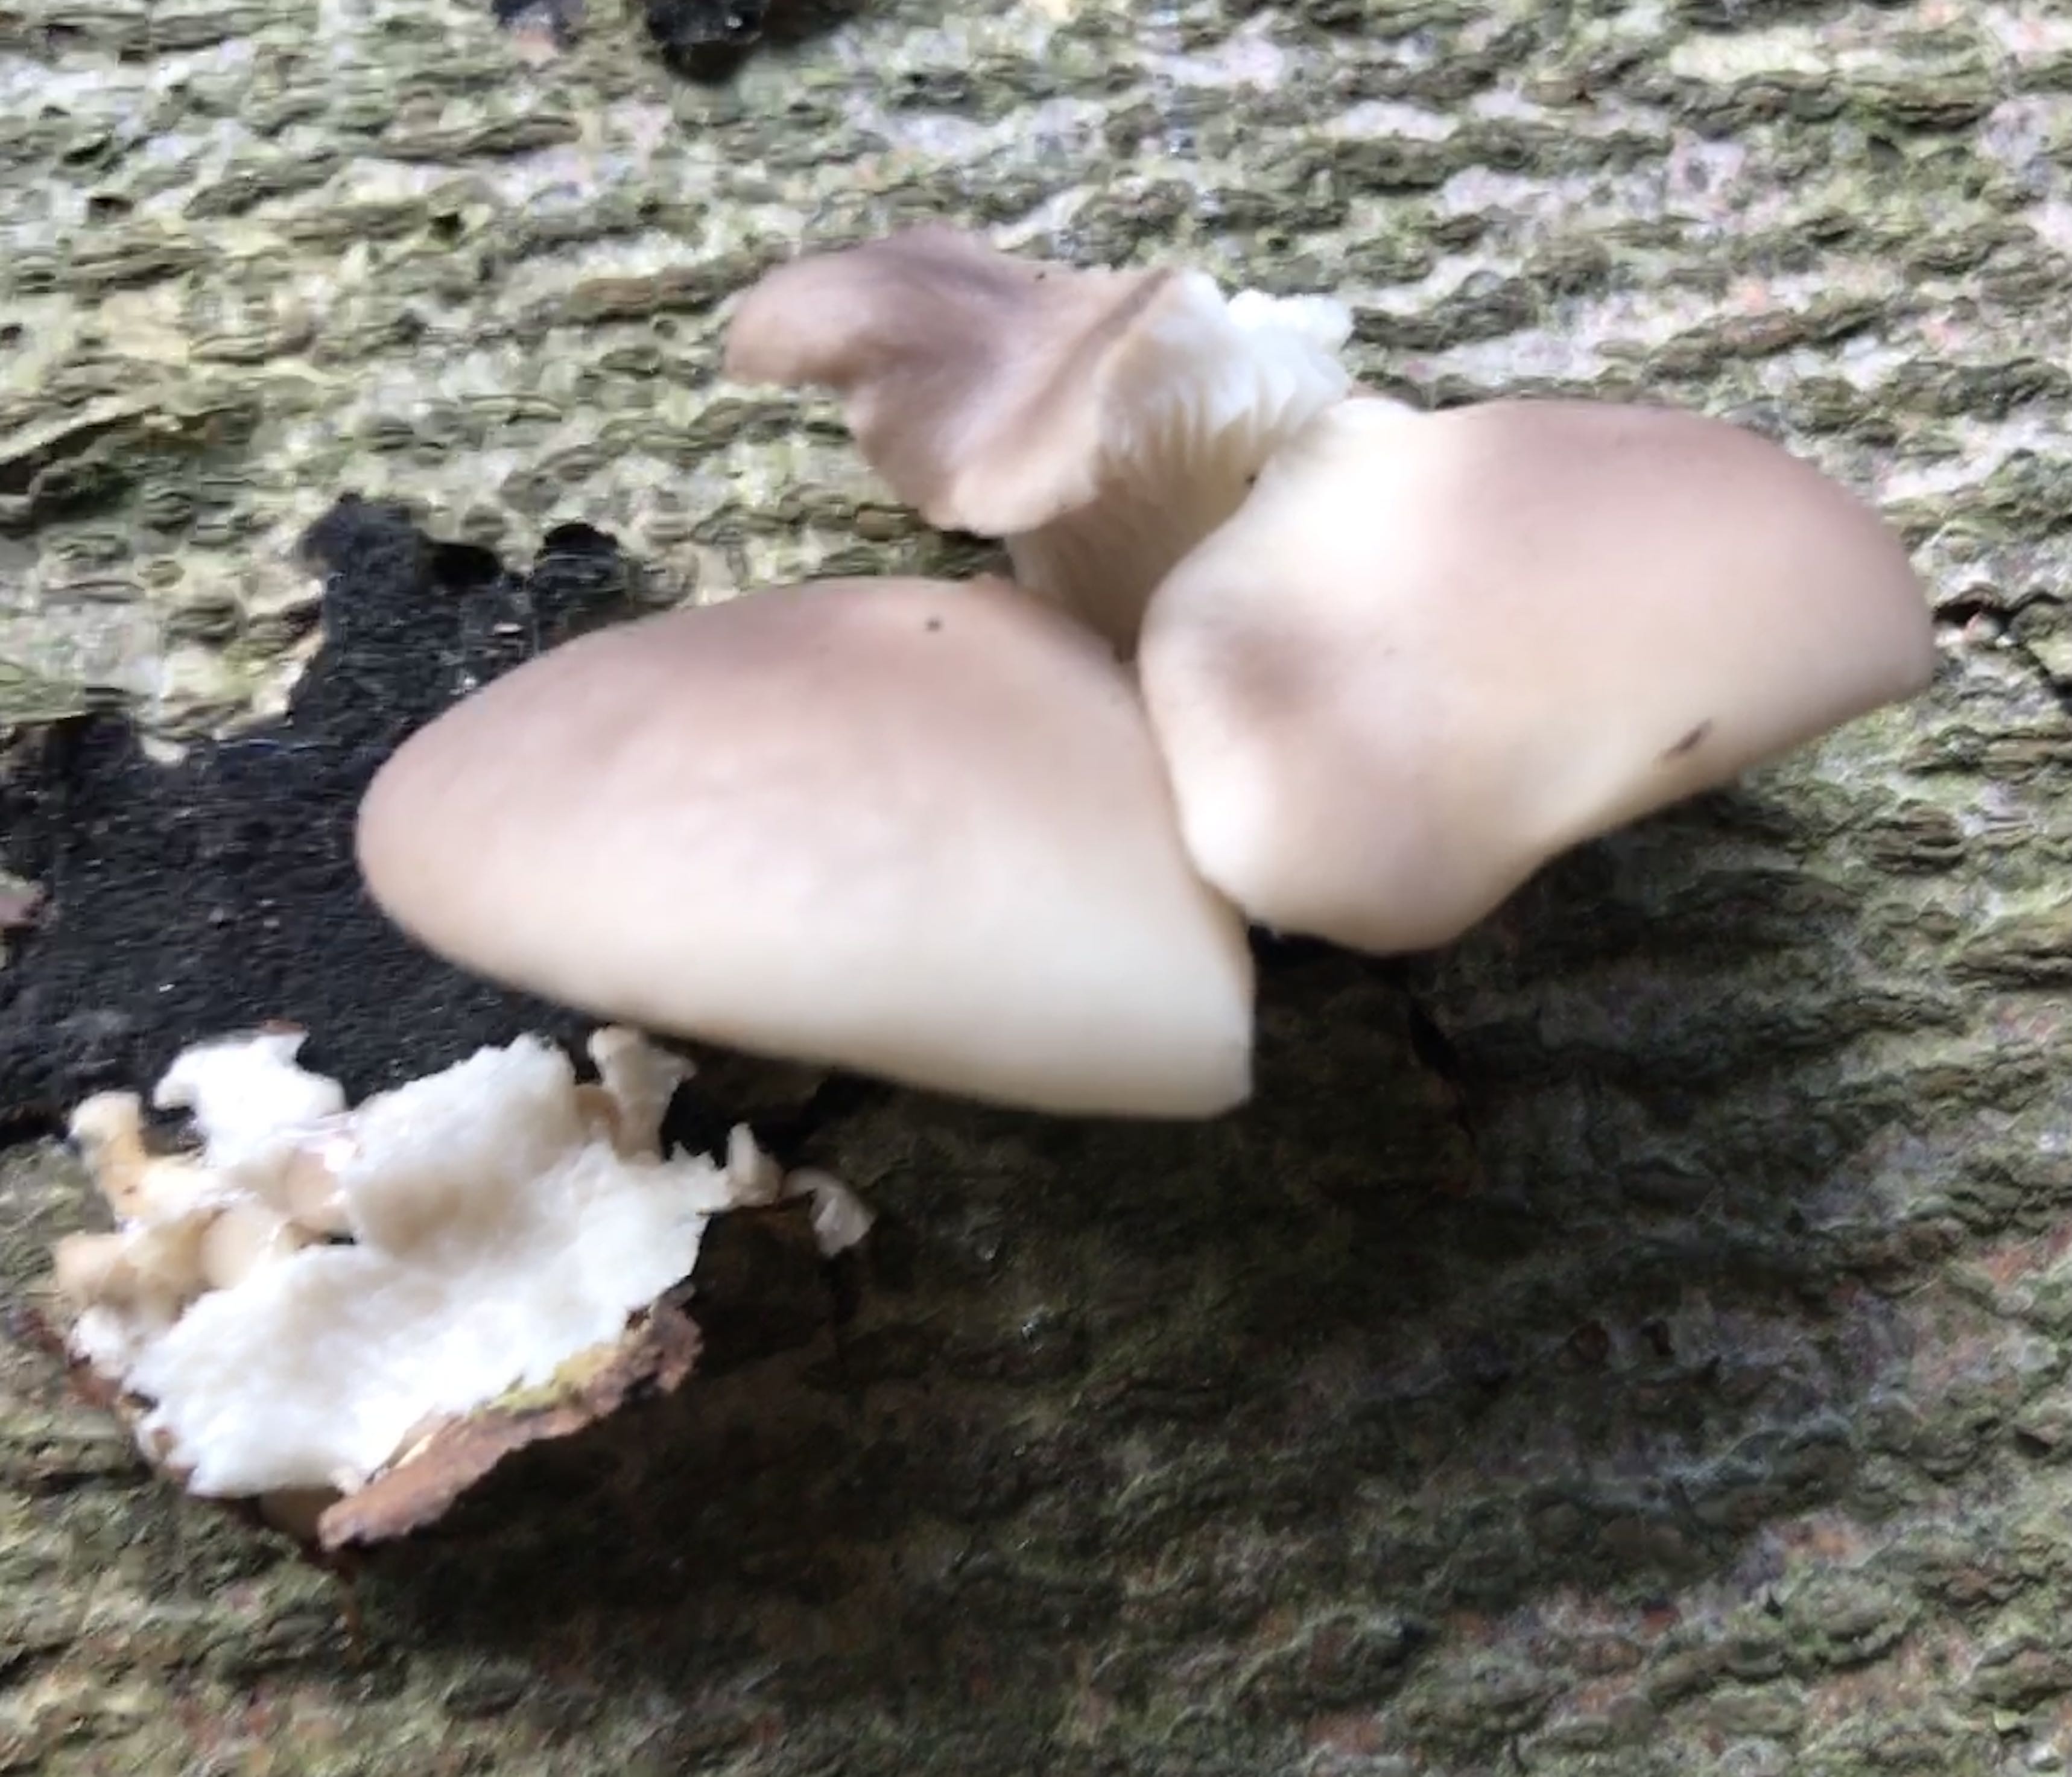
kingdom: Fungi
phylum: Basidiomycota
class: Agaricomycetes
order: Agaricales
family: Pleurotaceae
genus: Pleurotus
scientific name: Pleurotus ostreatus
